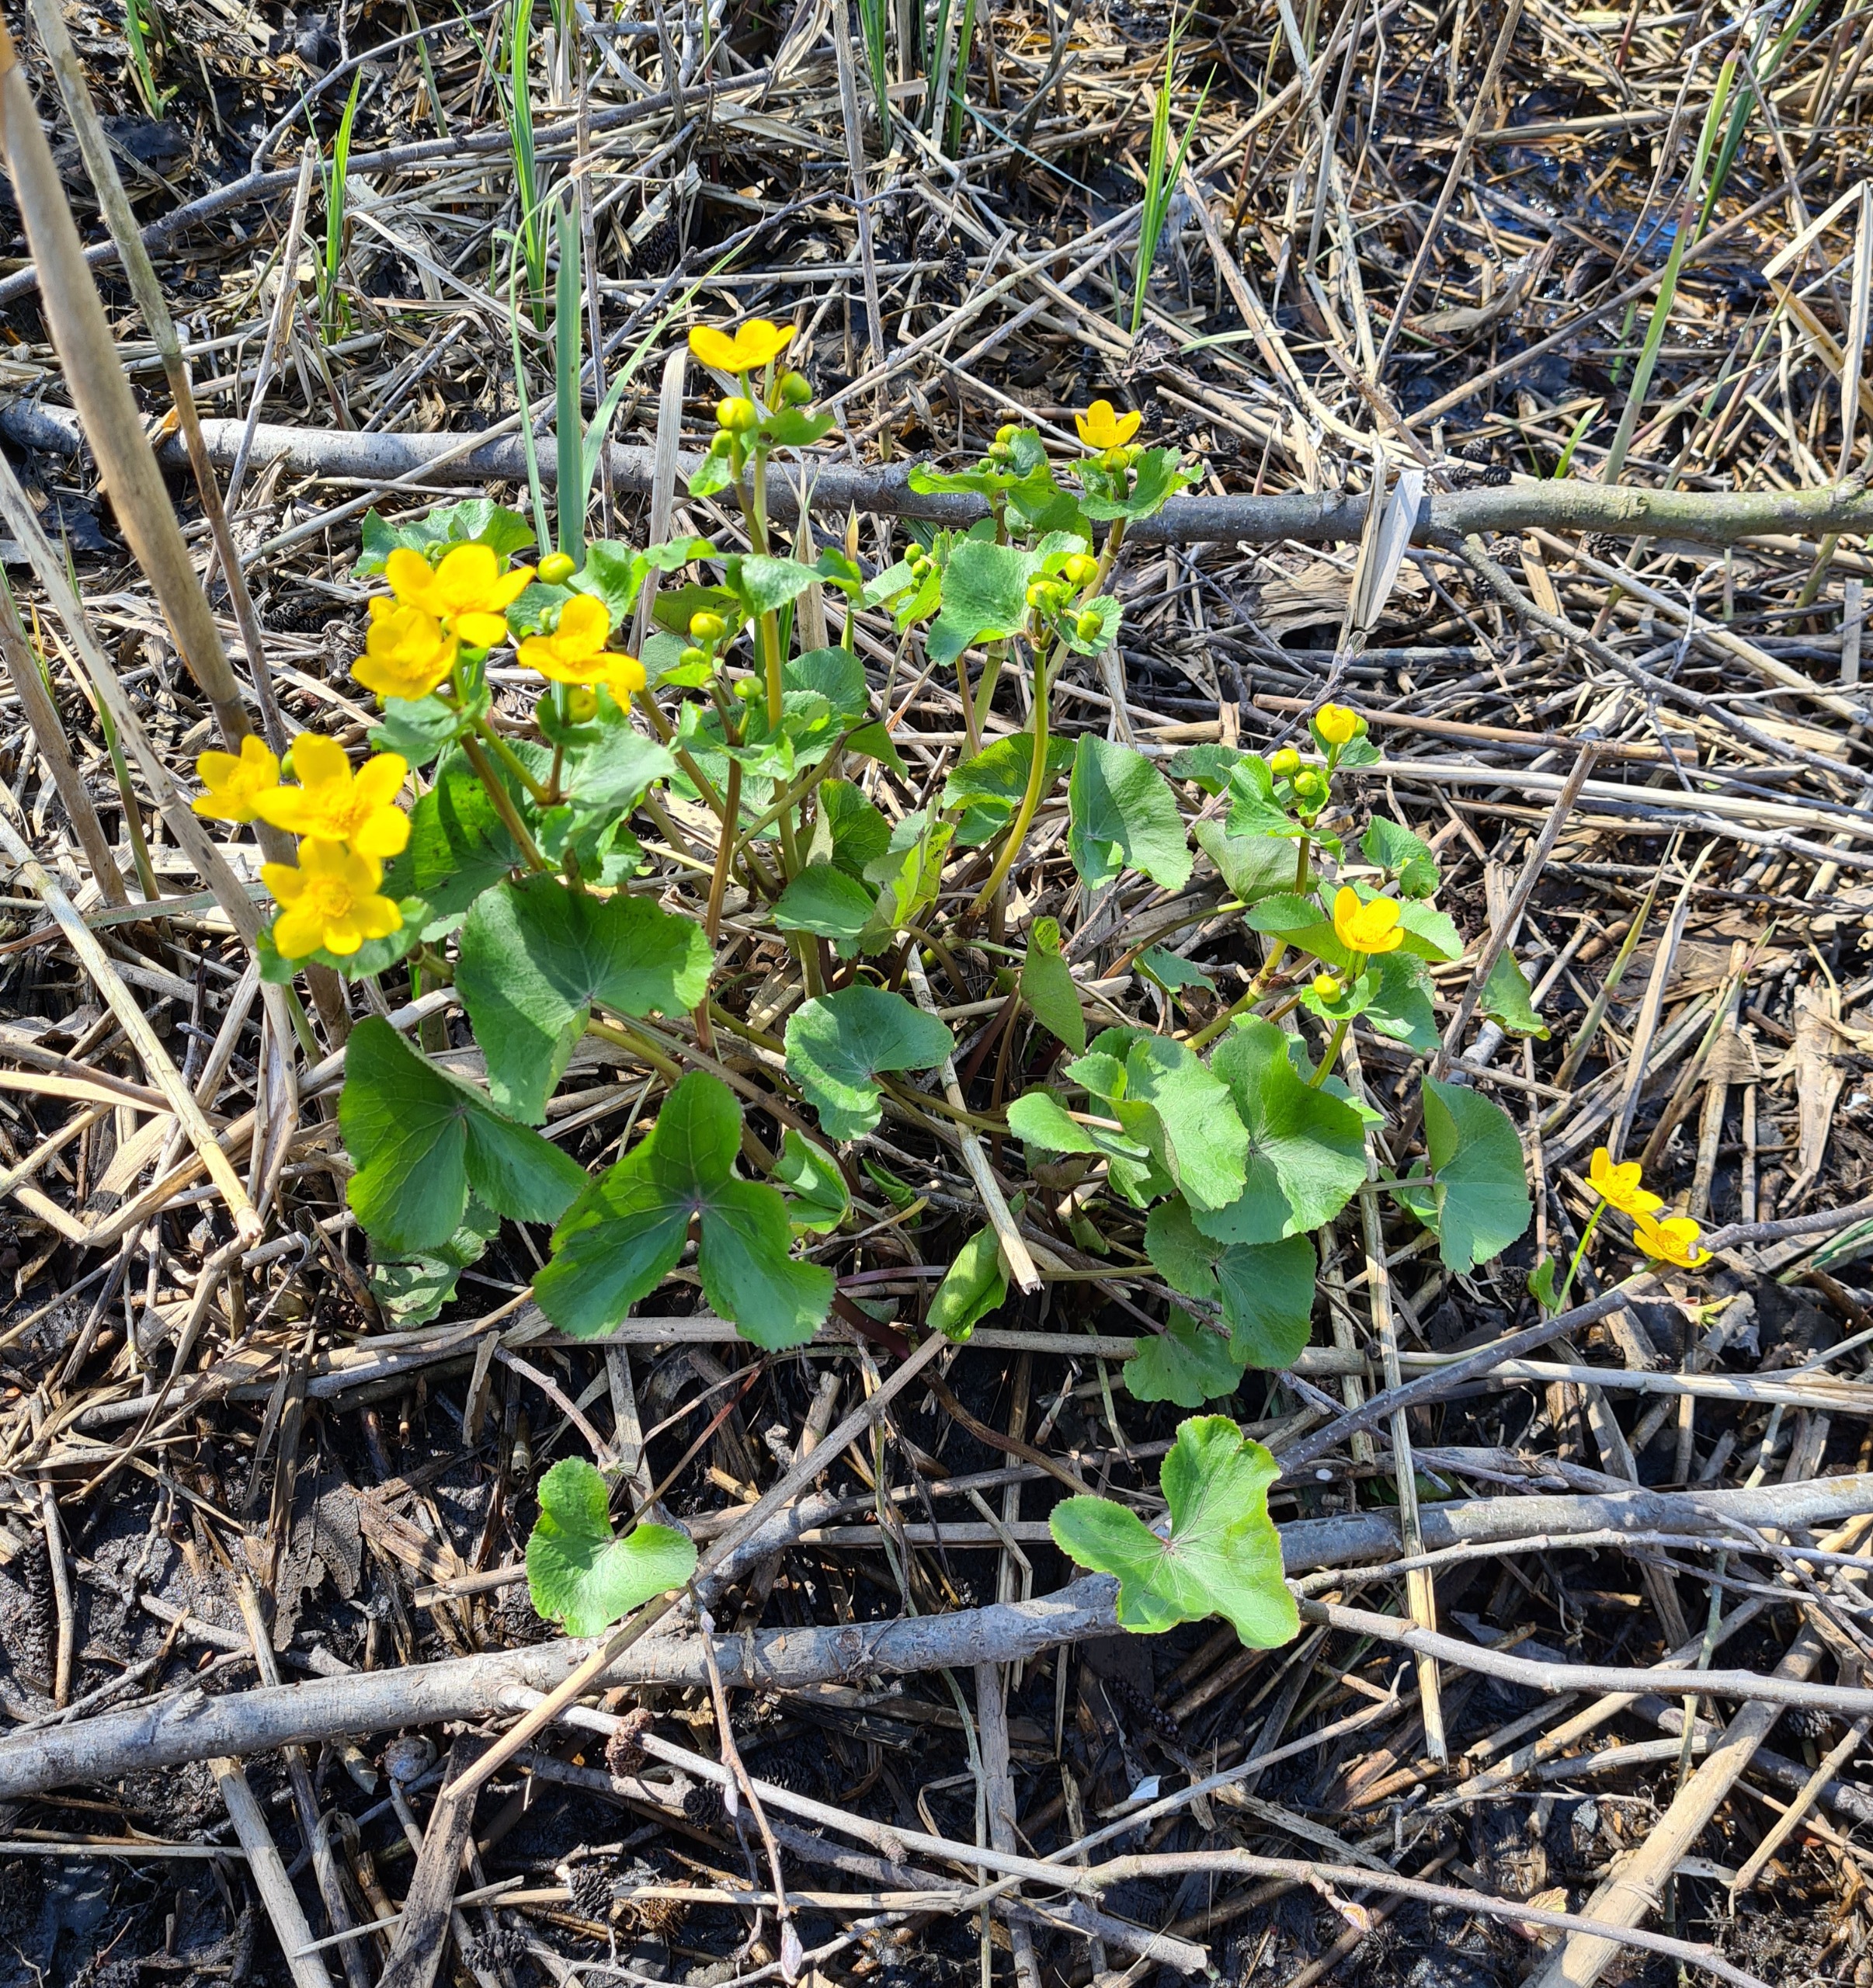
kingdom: Plantae
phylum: Tracheophyta
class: Magnoliopsida
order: Ranunculales
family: Ranunculaceae
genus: Caltha
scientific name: Caltha palustris
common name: Eng-kabbeleje
